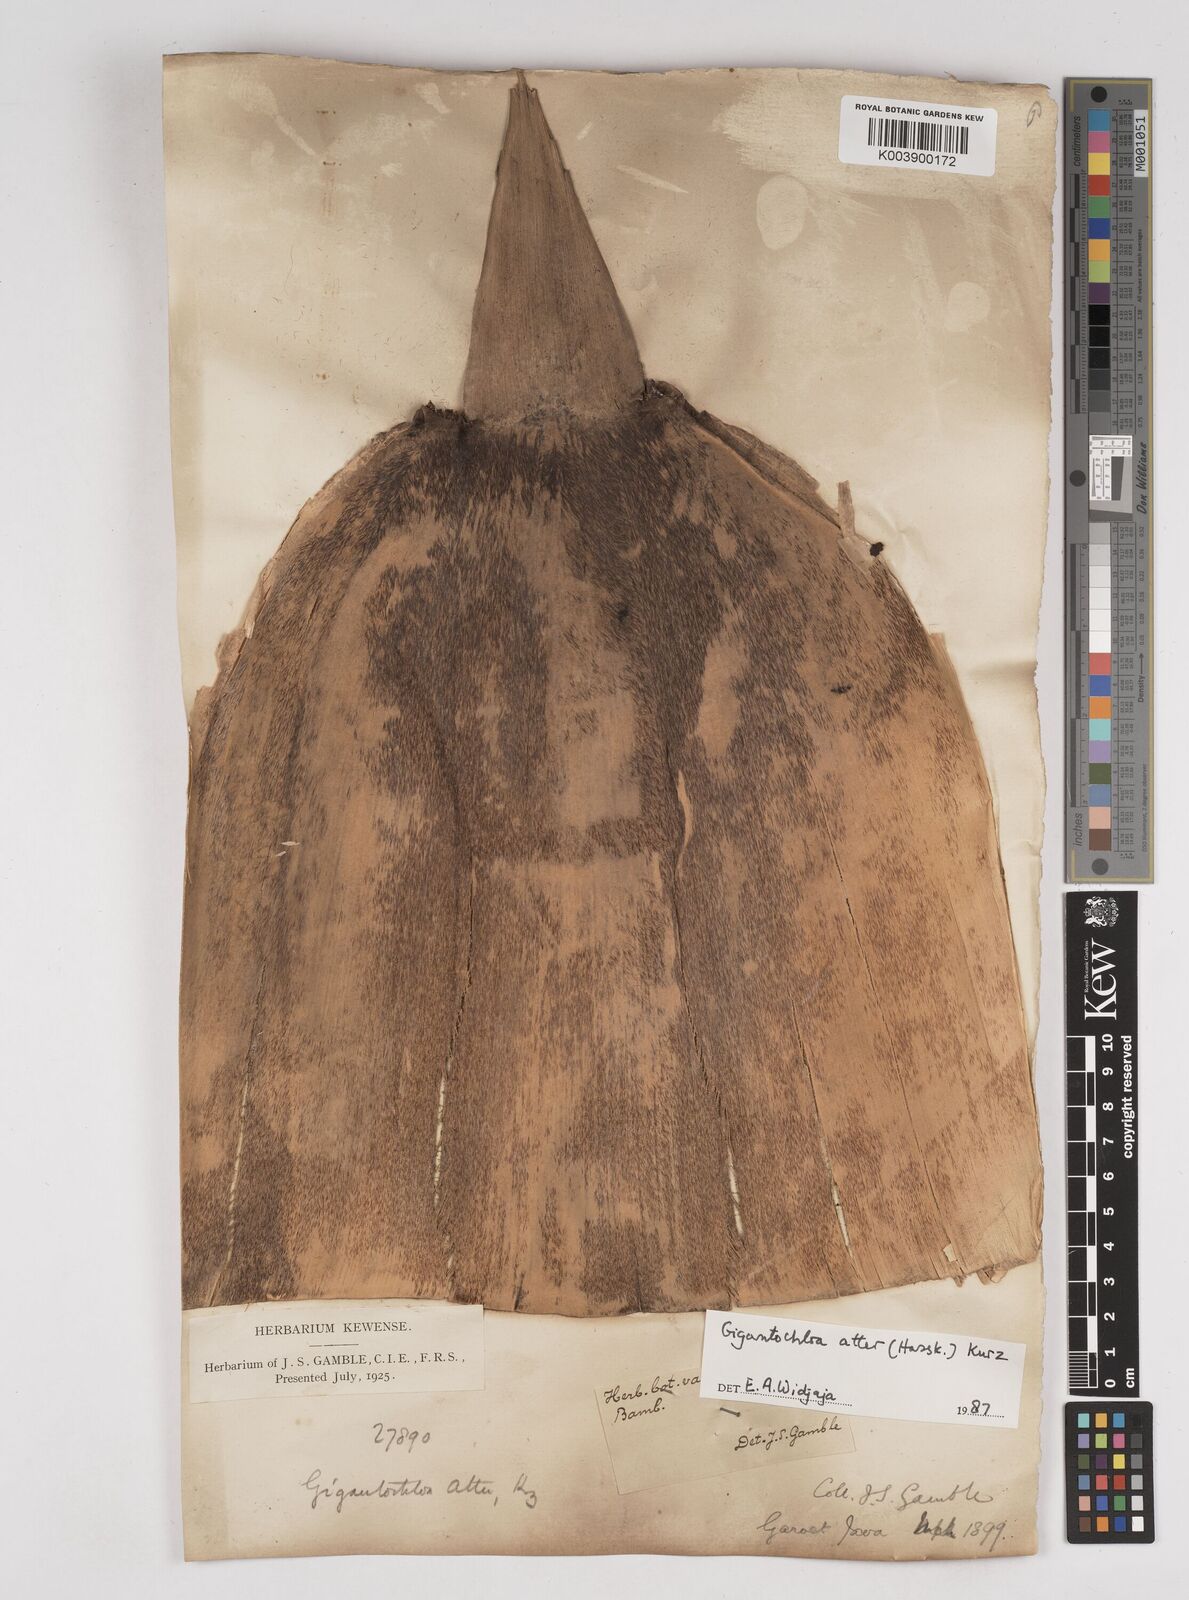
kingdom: Plantae
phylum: Tracheophyta
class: Liliopsida
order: Poales
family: Poaceae
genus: Gigantochloa
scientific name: Gigantochloa atter
